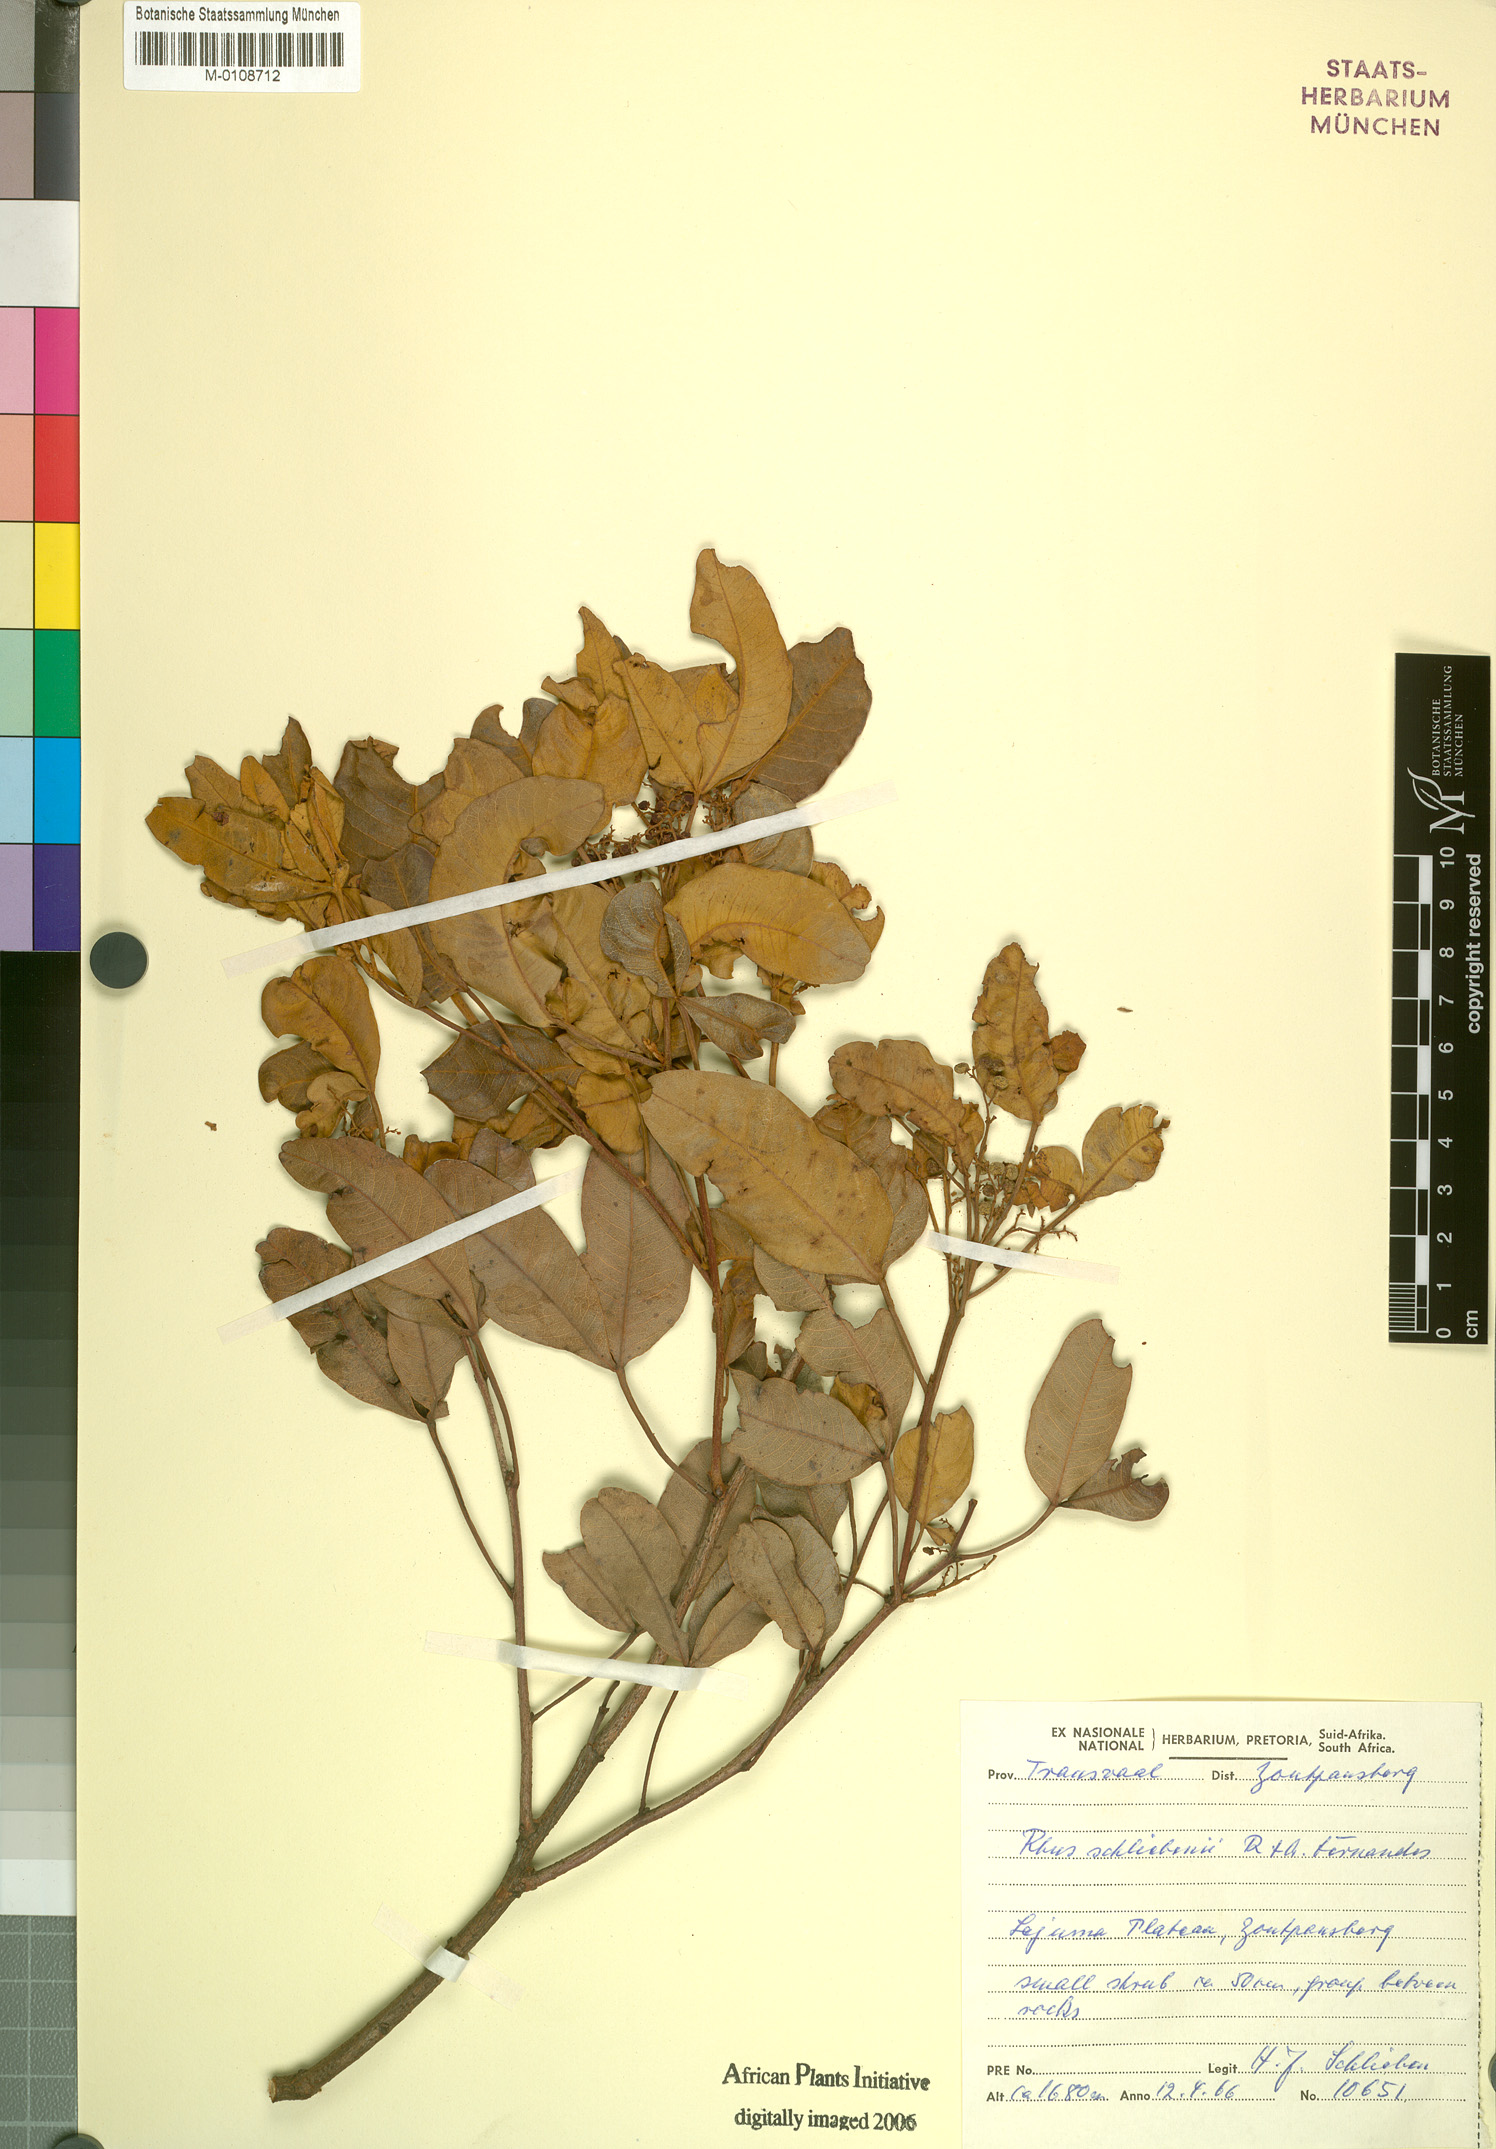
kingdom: Plantae
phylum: Tracheophyta
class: Magnoliopsida
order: Sapindales
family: Anacardiaceae
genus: Searsia
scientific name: Searsia magalismontana
